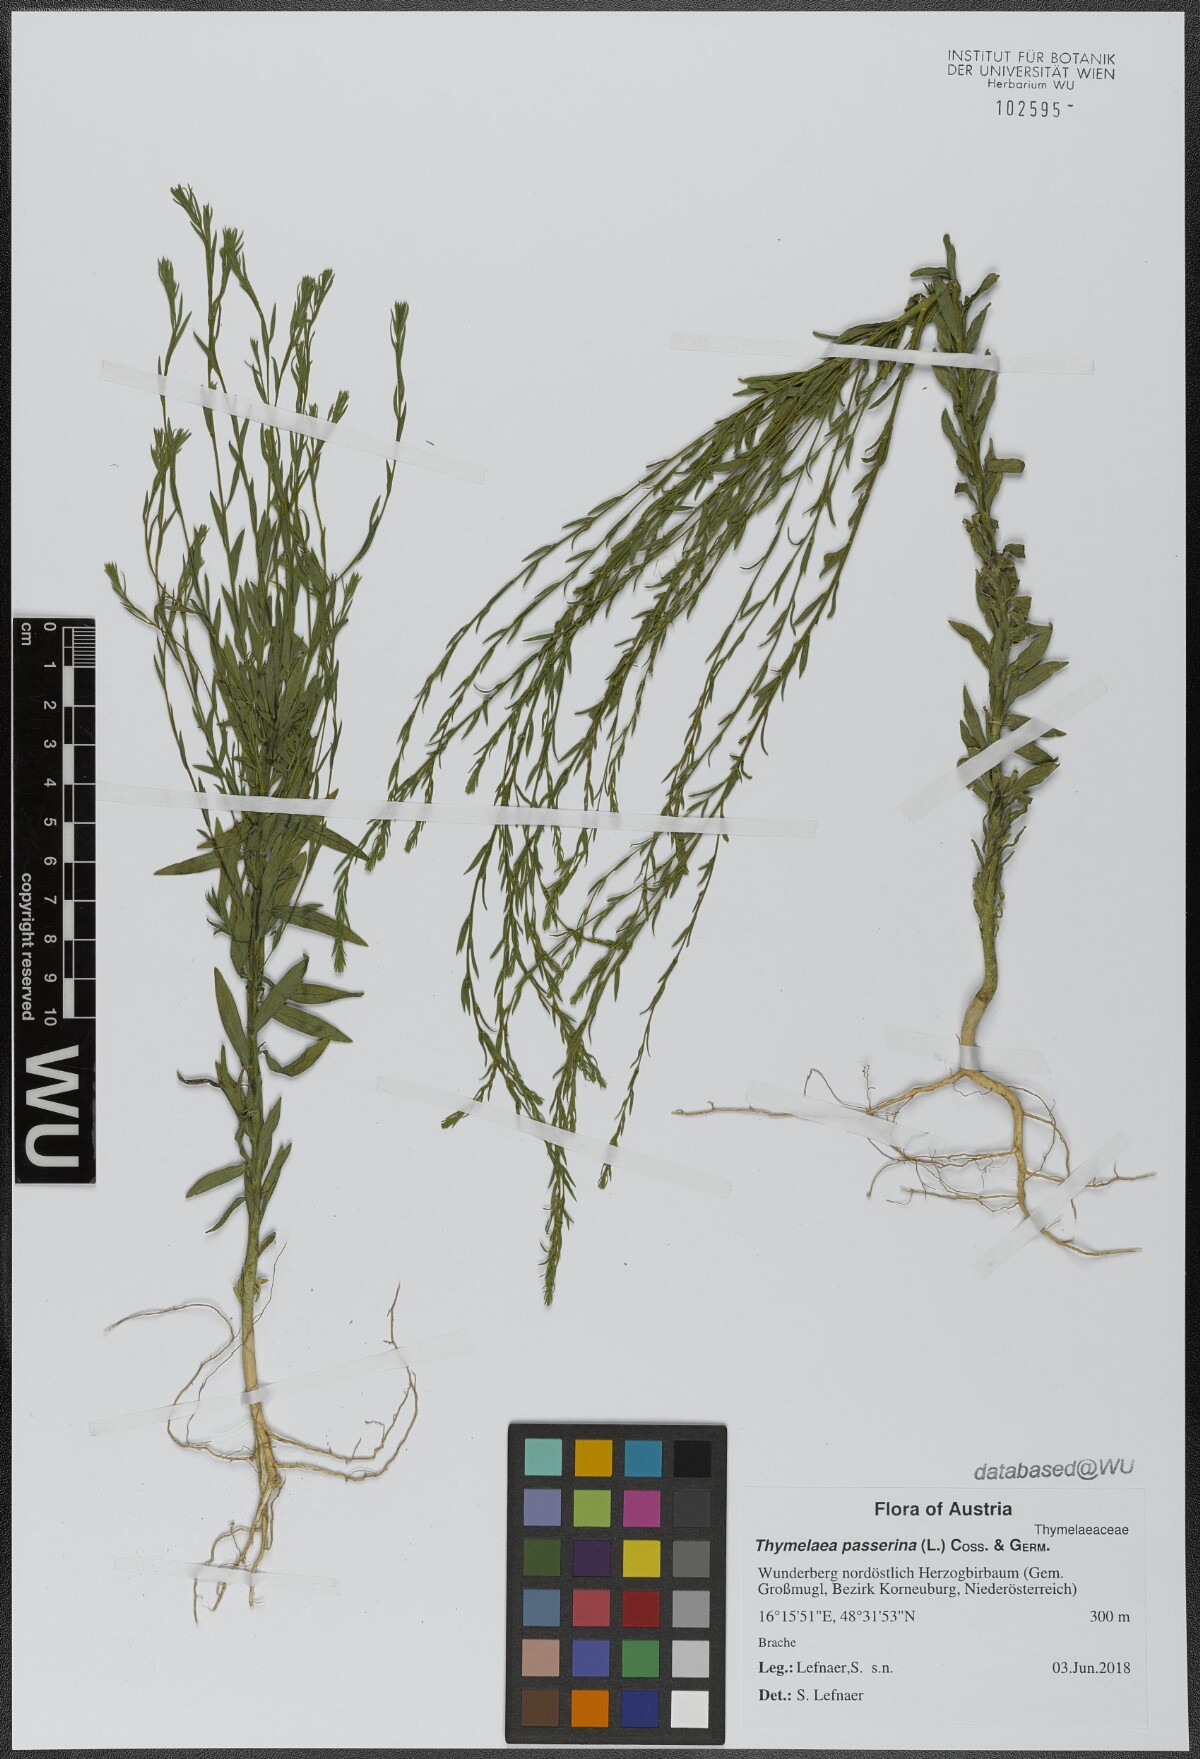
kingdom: Plantae
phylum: Tracheophyta
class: Magnoliopsida
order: Malvales
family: Thymelaeaceae
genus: Thymelaea
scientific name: Thymelaea passerina
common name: Annual thymelaea
